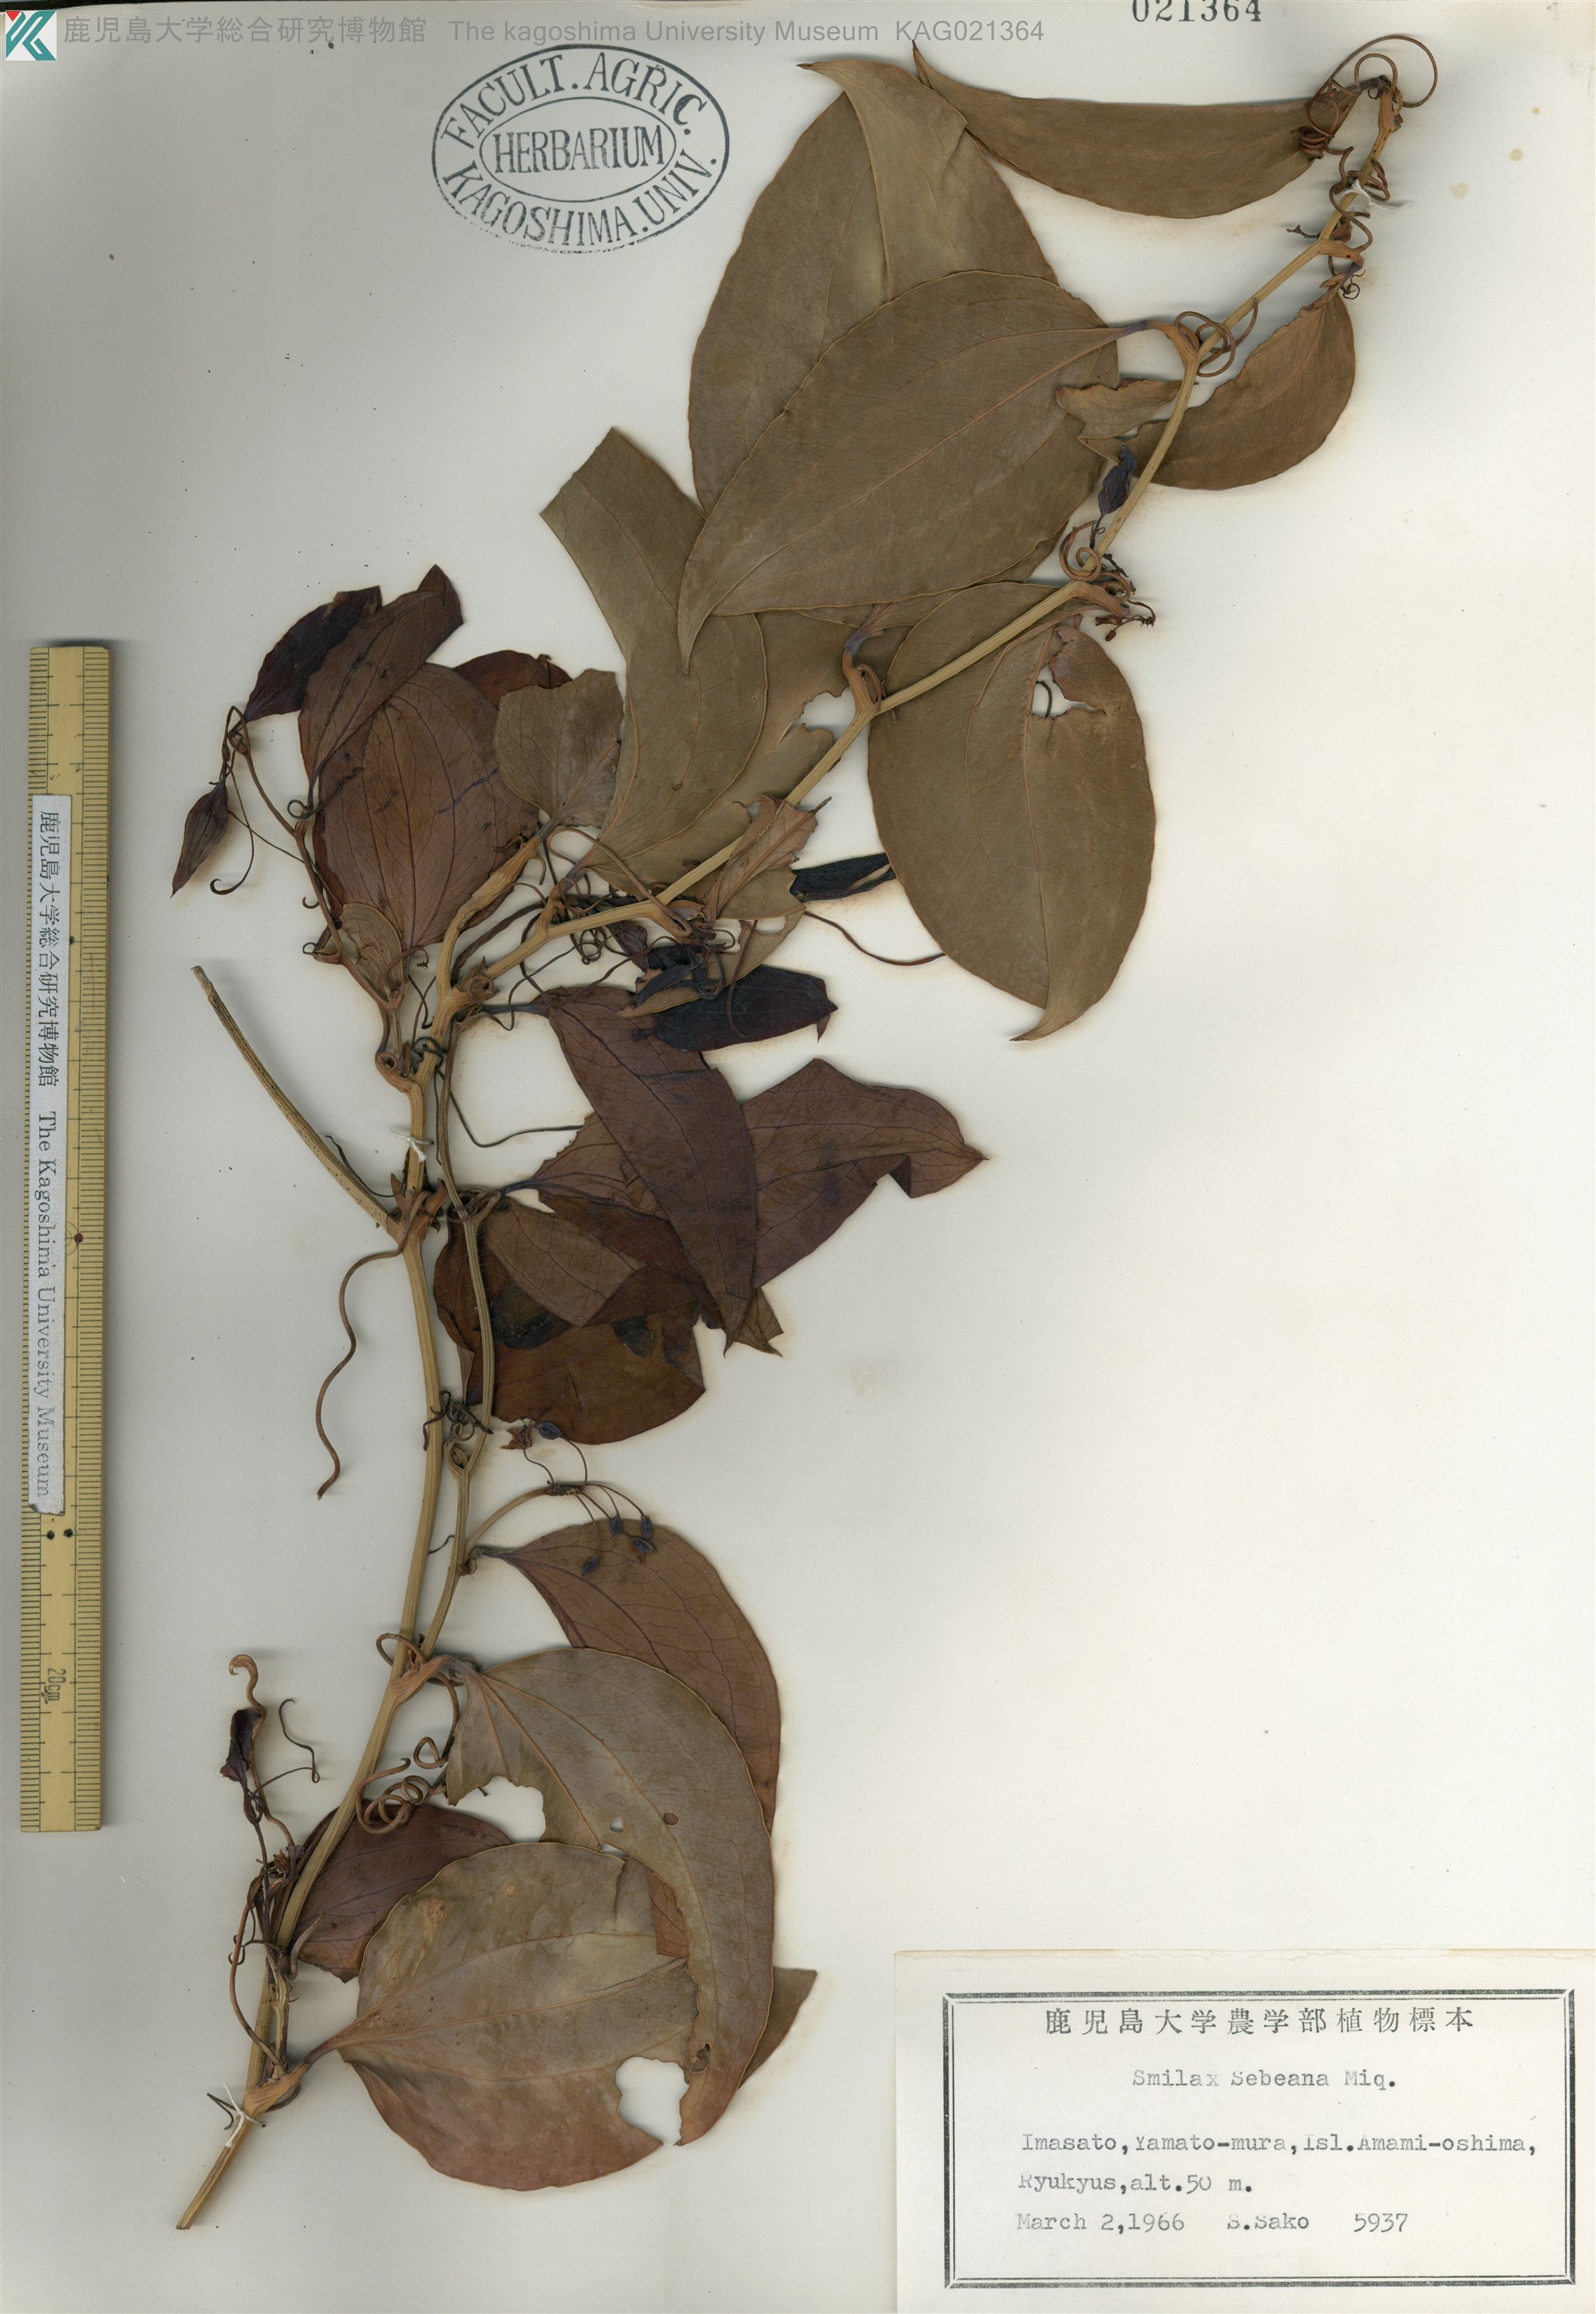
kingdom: Plantae
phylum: Tracheophyta
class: Liliopsida
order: Liliales
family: Smilacaceae
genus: Smilax
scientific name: Smilax sebeana
